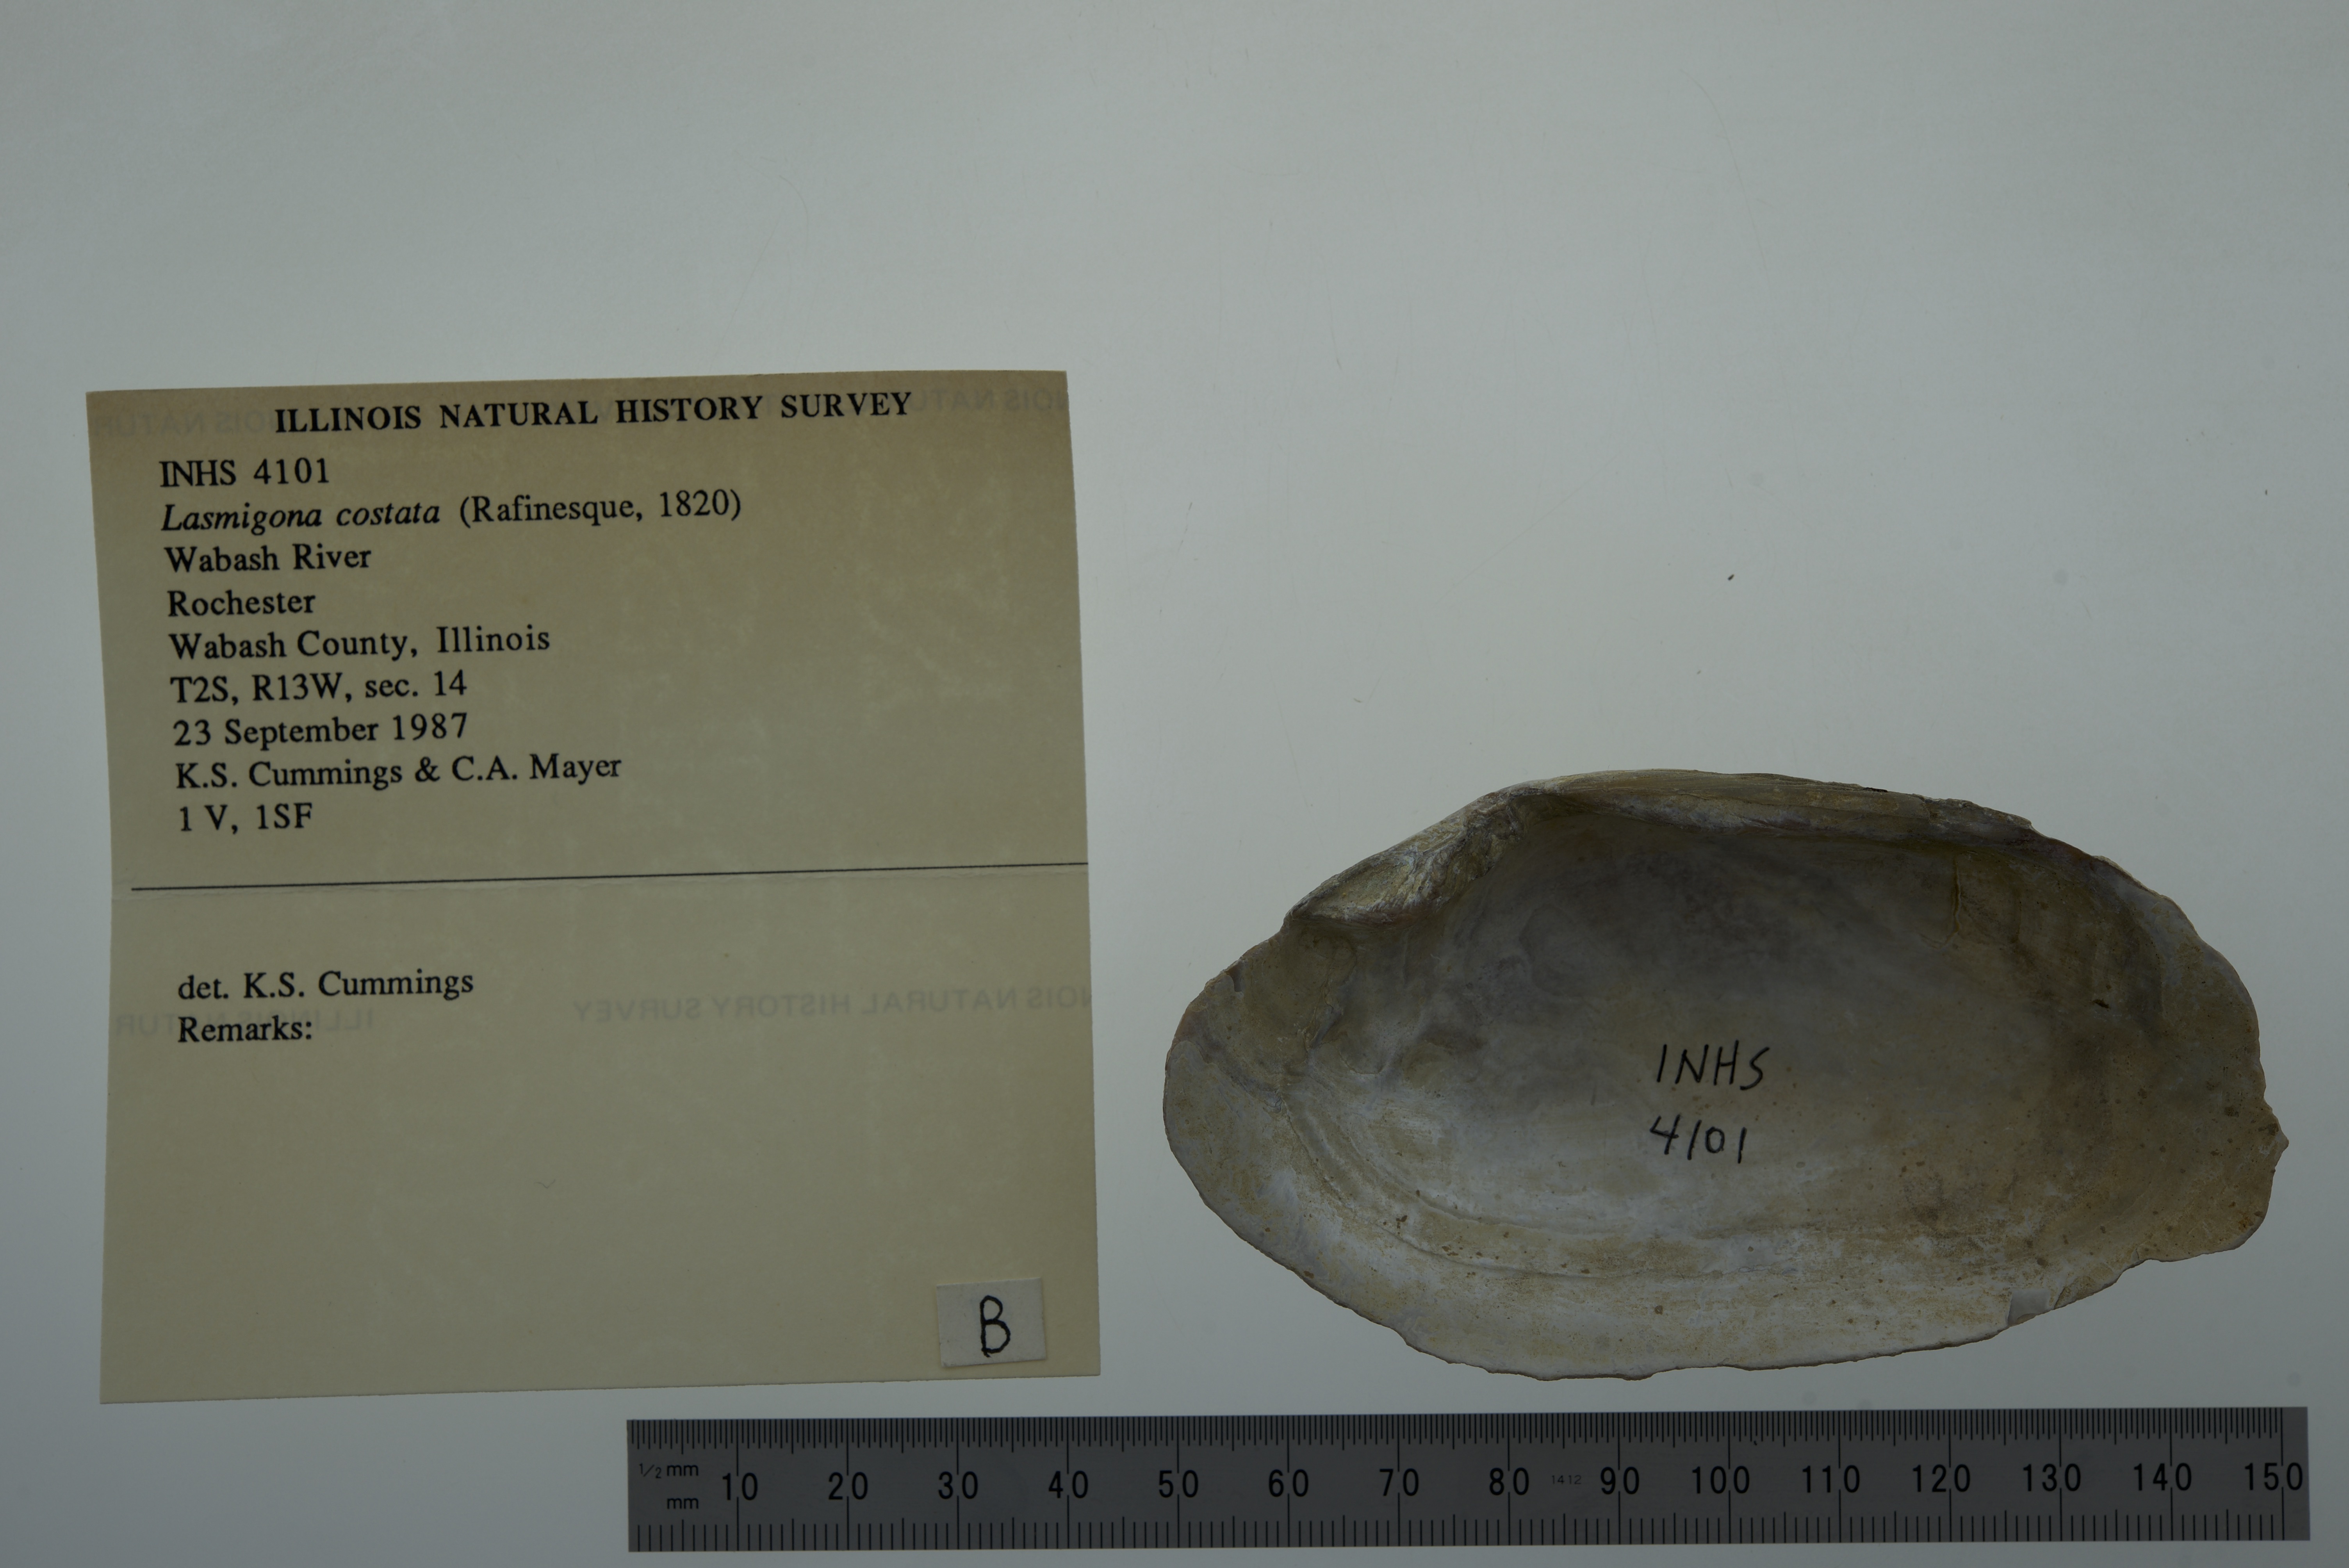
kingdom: Animalia
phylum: Mollusca
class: Bivalvia
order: Unionida
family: Unionidae
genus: Lasmigona
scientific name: Lasmigona costata
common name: Flutedshell
